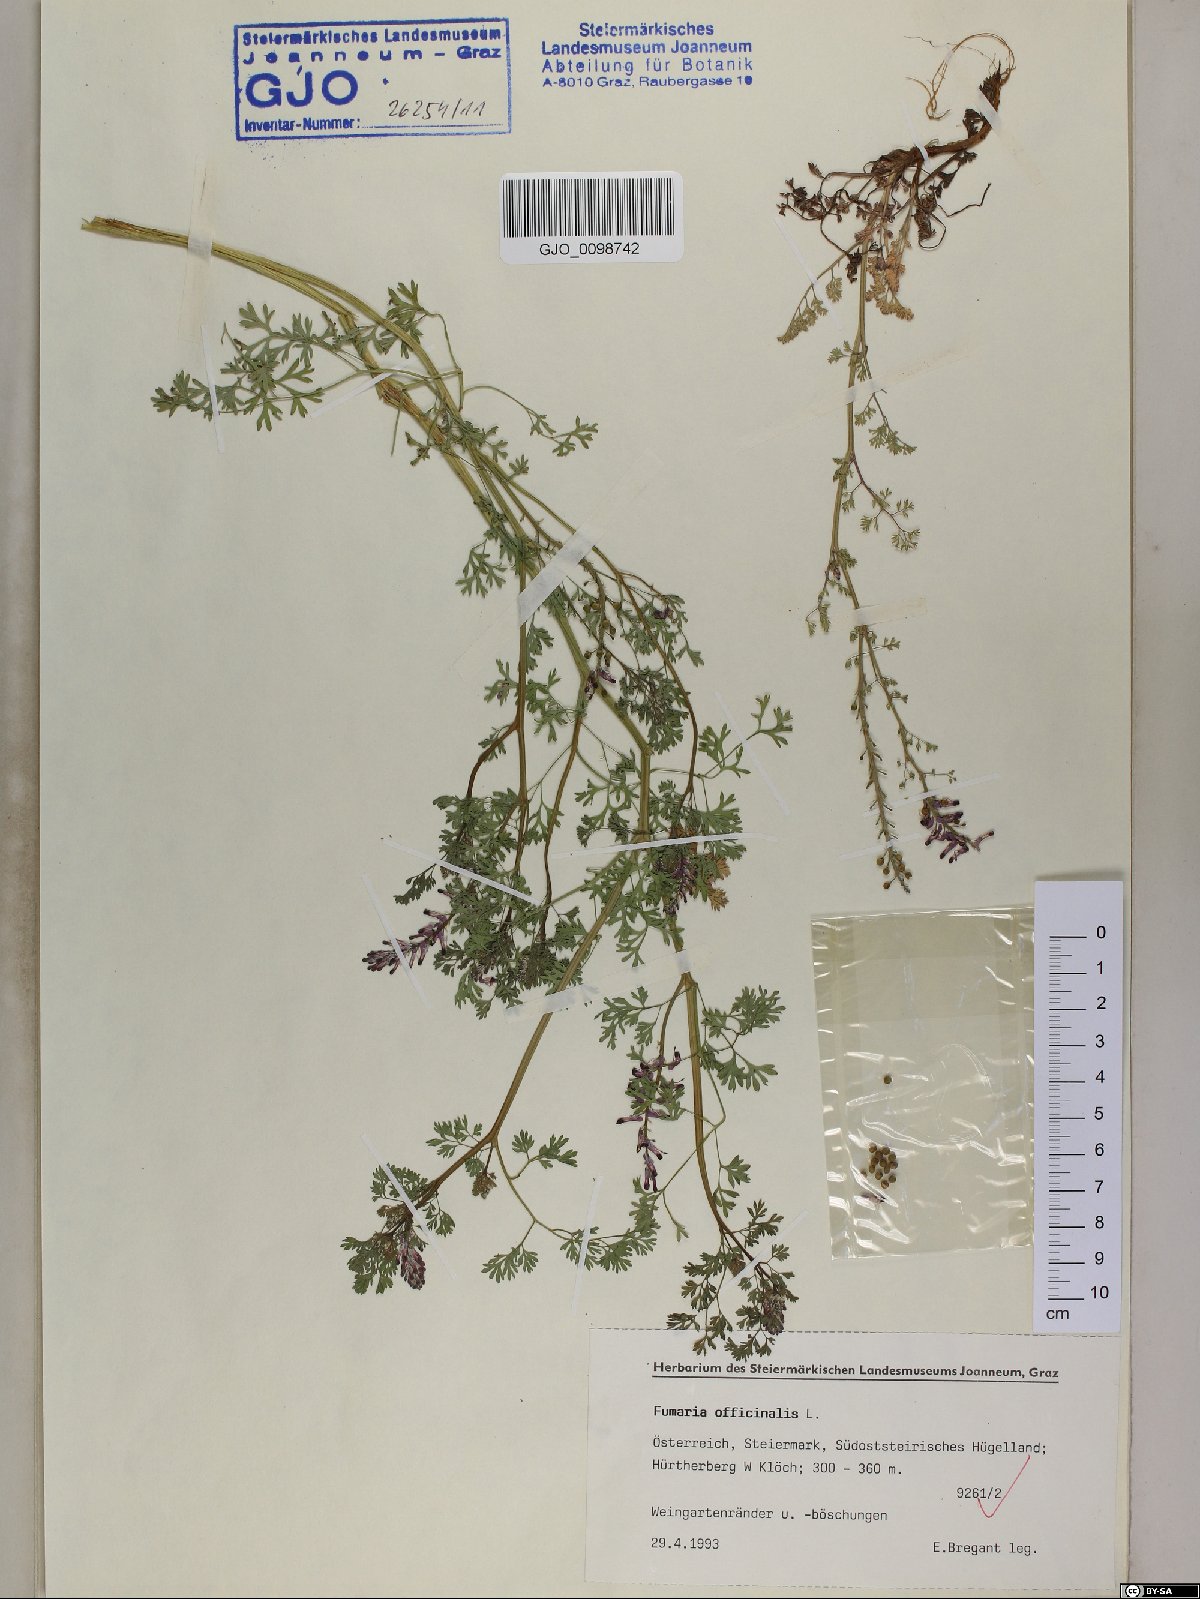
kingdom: Plantae
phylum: Tracheophyta
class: Magnoliopsida
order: Ranunculales
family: Papaveraceae
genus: Fumaria
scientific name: Fumaria officinalis
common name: Common fumitory
